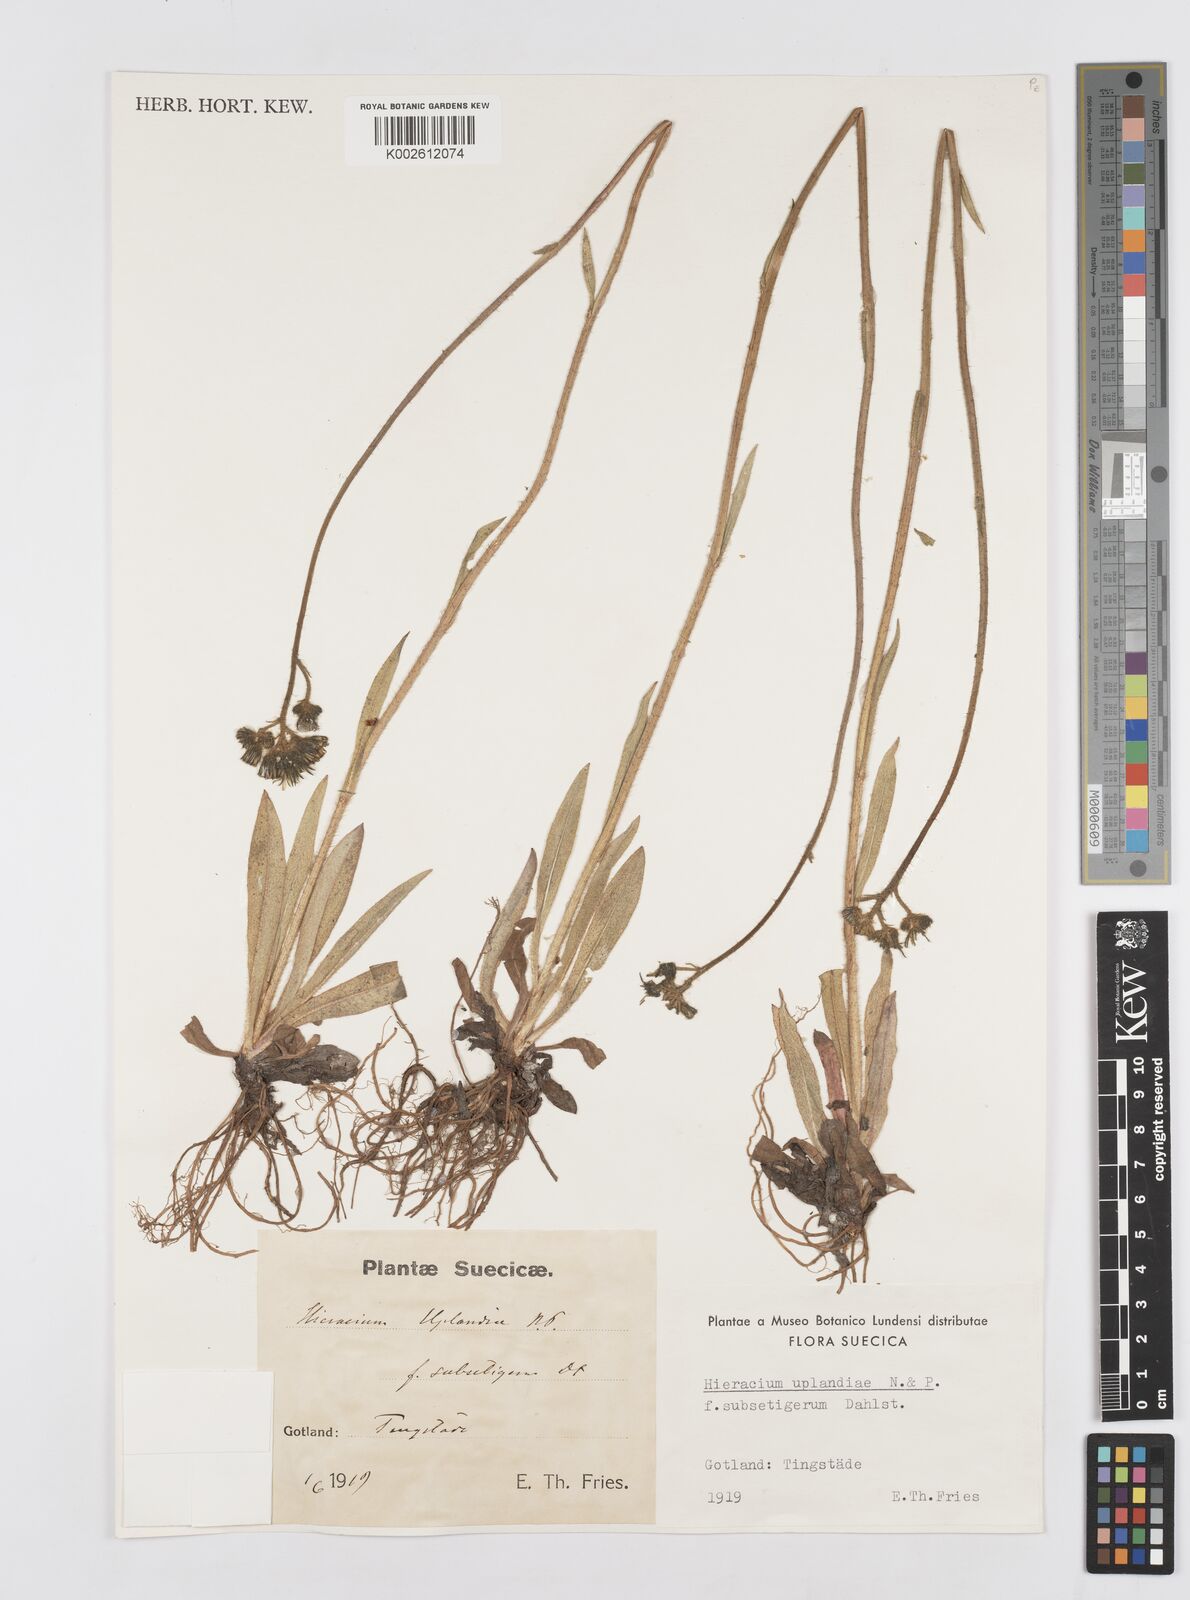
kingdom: Plantae
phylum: Tracheophyta
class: Magnoliopsida
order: Asterales
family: Asteraceae
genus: Hieracium
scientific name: Hieracium uplandiae
